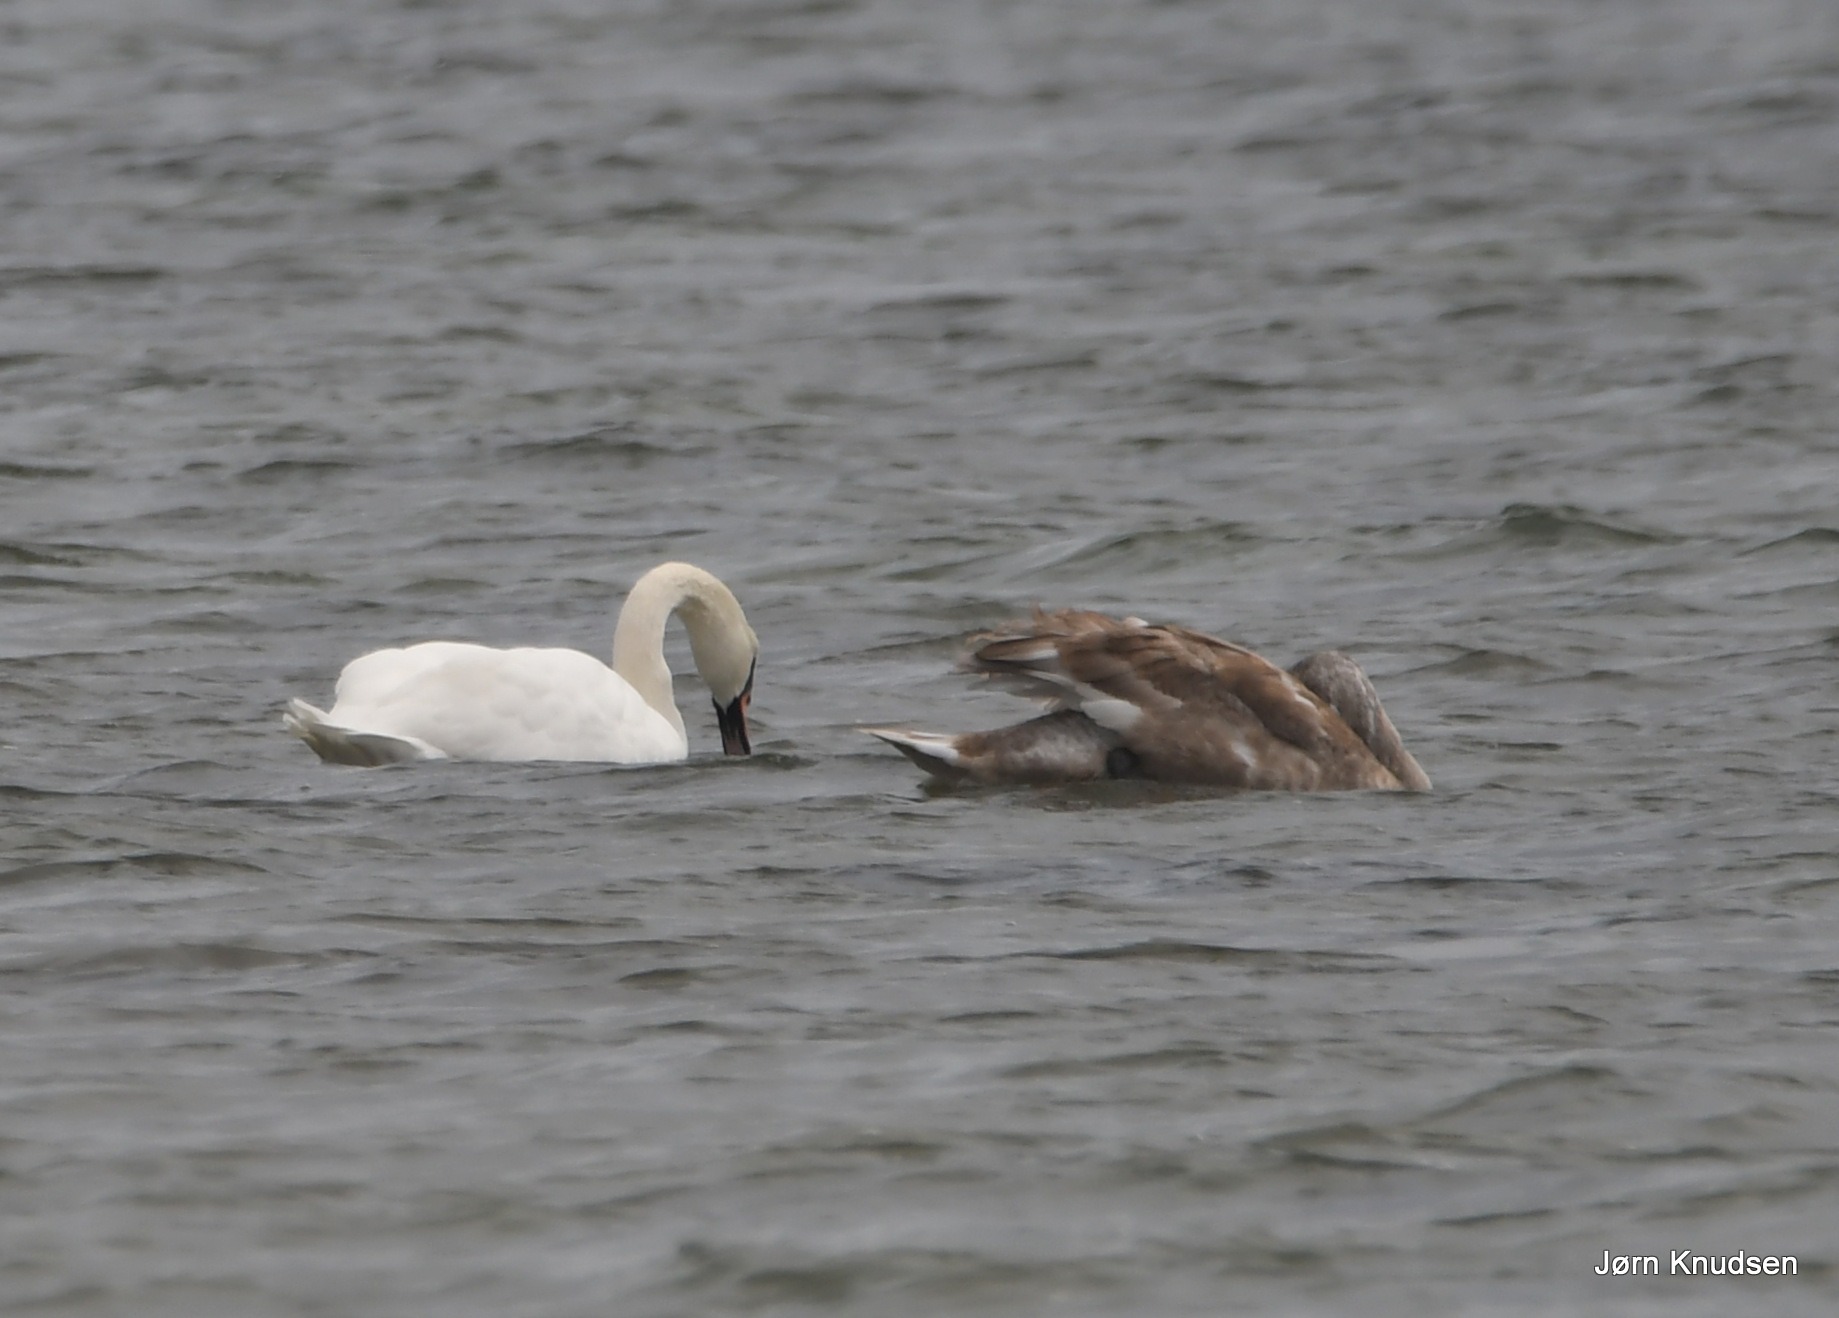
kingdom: Animalia
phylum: Chordata
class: Aves
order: Anseriformes
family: Anatidae
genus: Cygnus
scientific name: Cygnus olor
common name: Knopsvane
